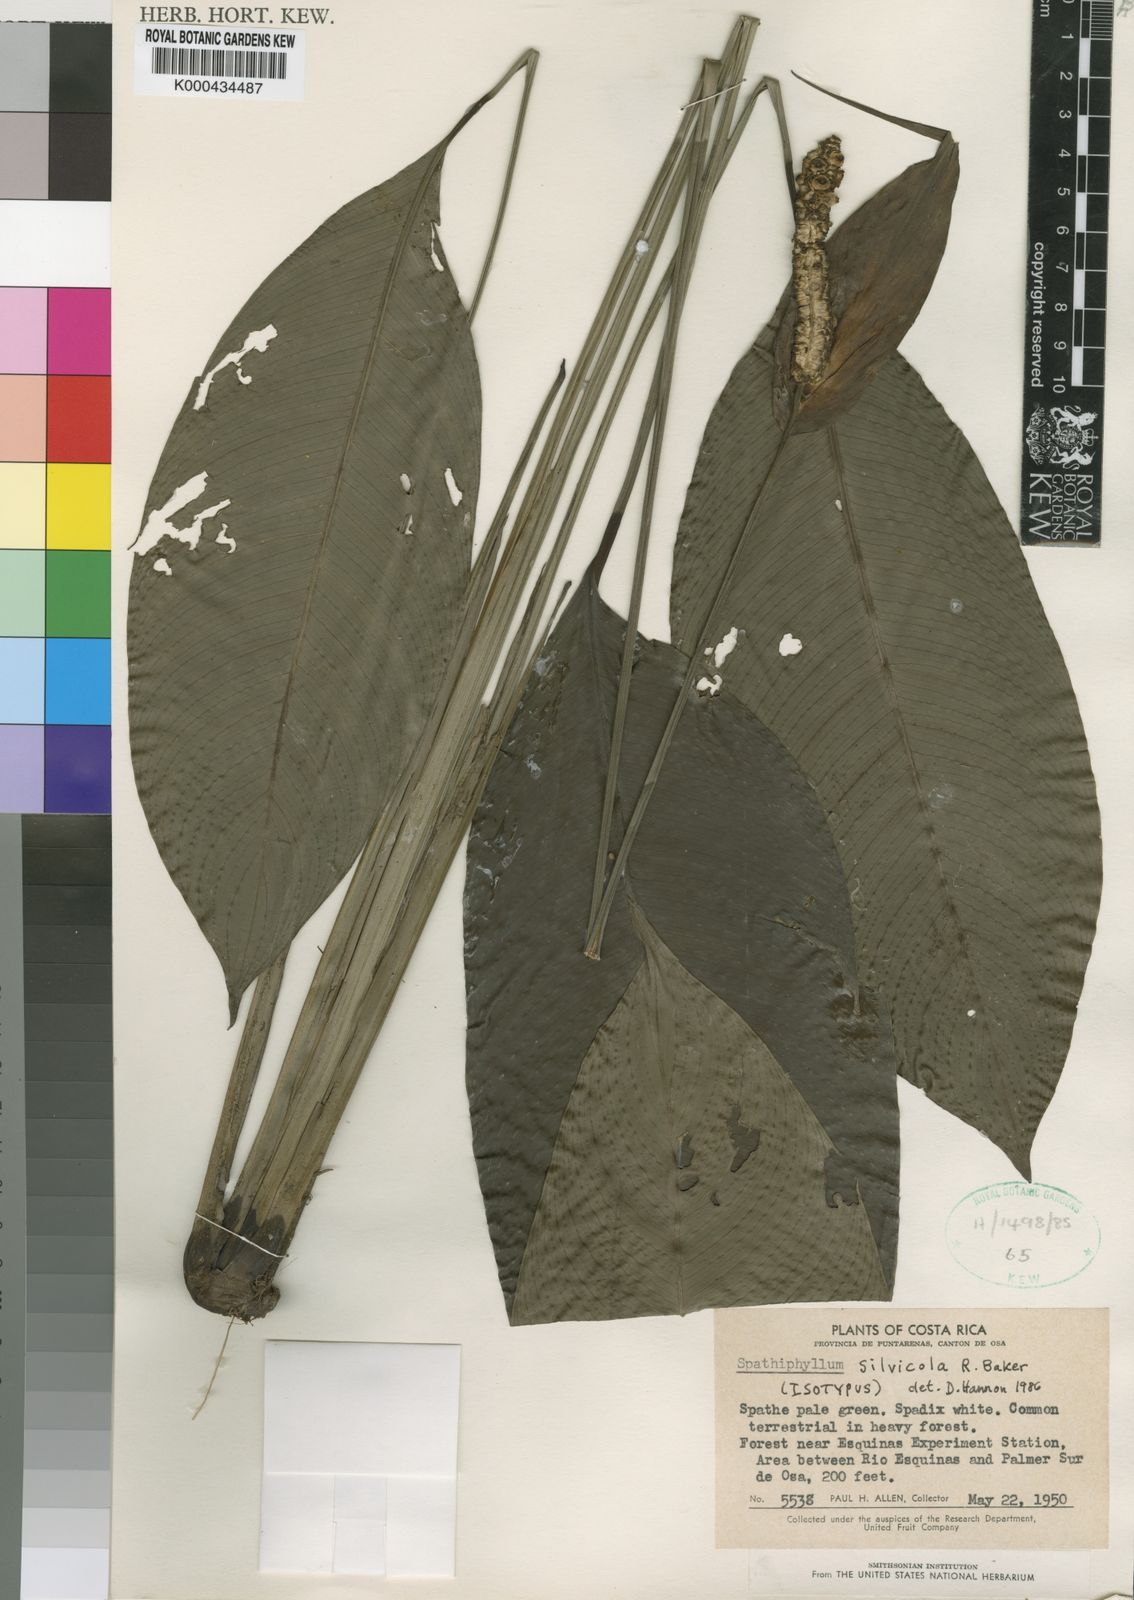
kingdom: Plantae
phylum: Tracheophyta
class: Liliopsida
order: Alismatales
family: Araceae
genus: Spathiphyllum
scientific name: Spathiphyllum silvicola
